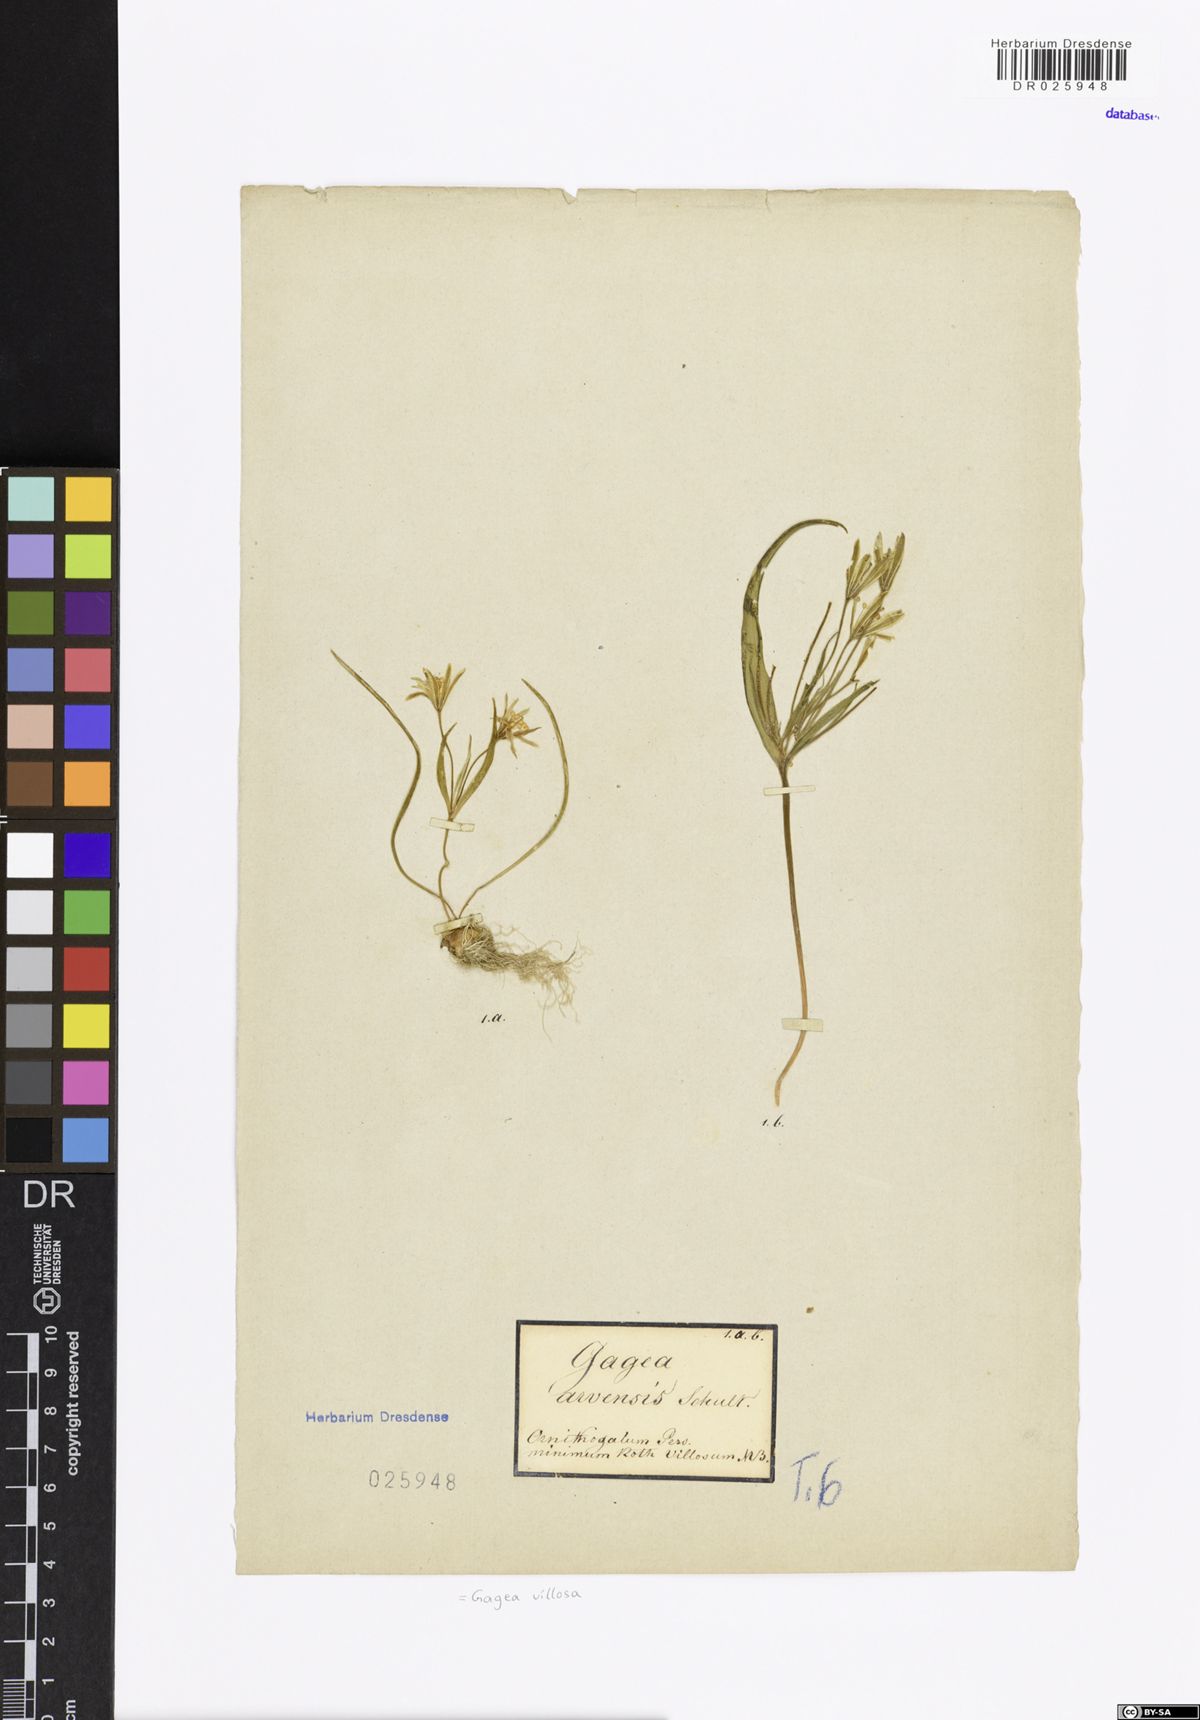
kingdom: Plantae
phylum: Tracheophyta
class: Liliopsida
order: Liliales
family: Liliaceae
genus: Gagea
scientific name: Gagea villosa
